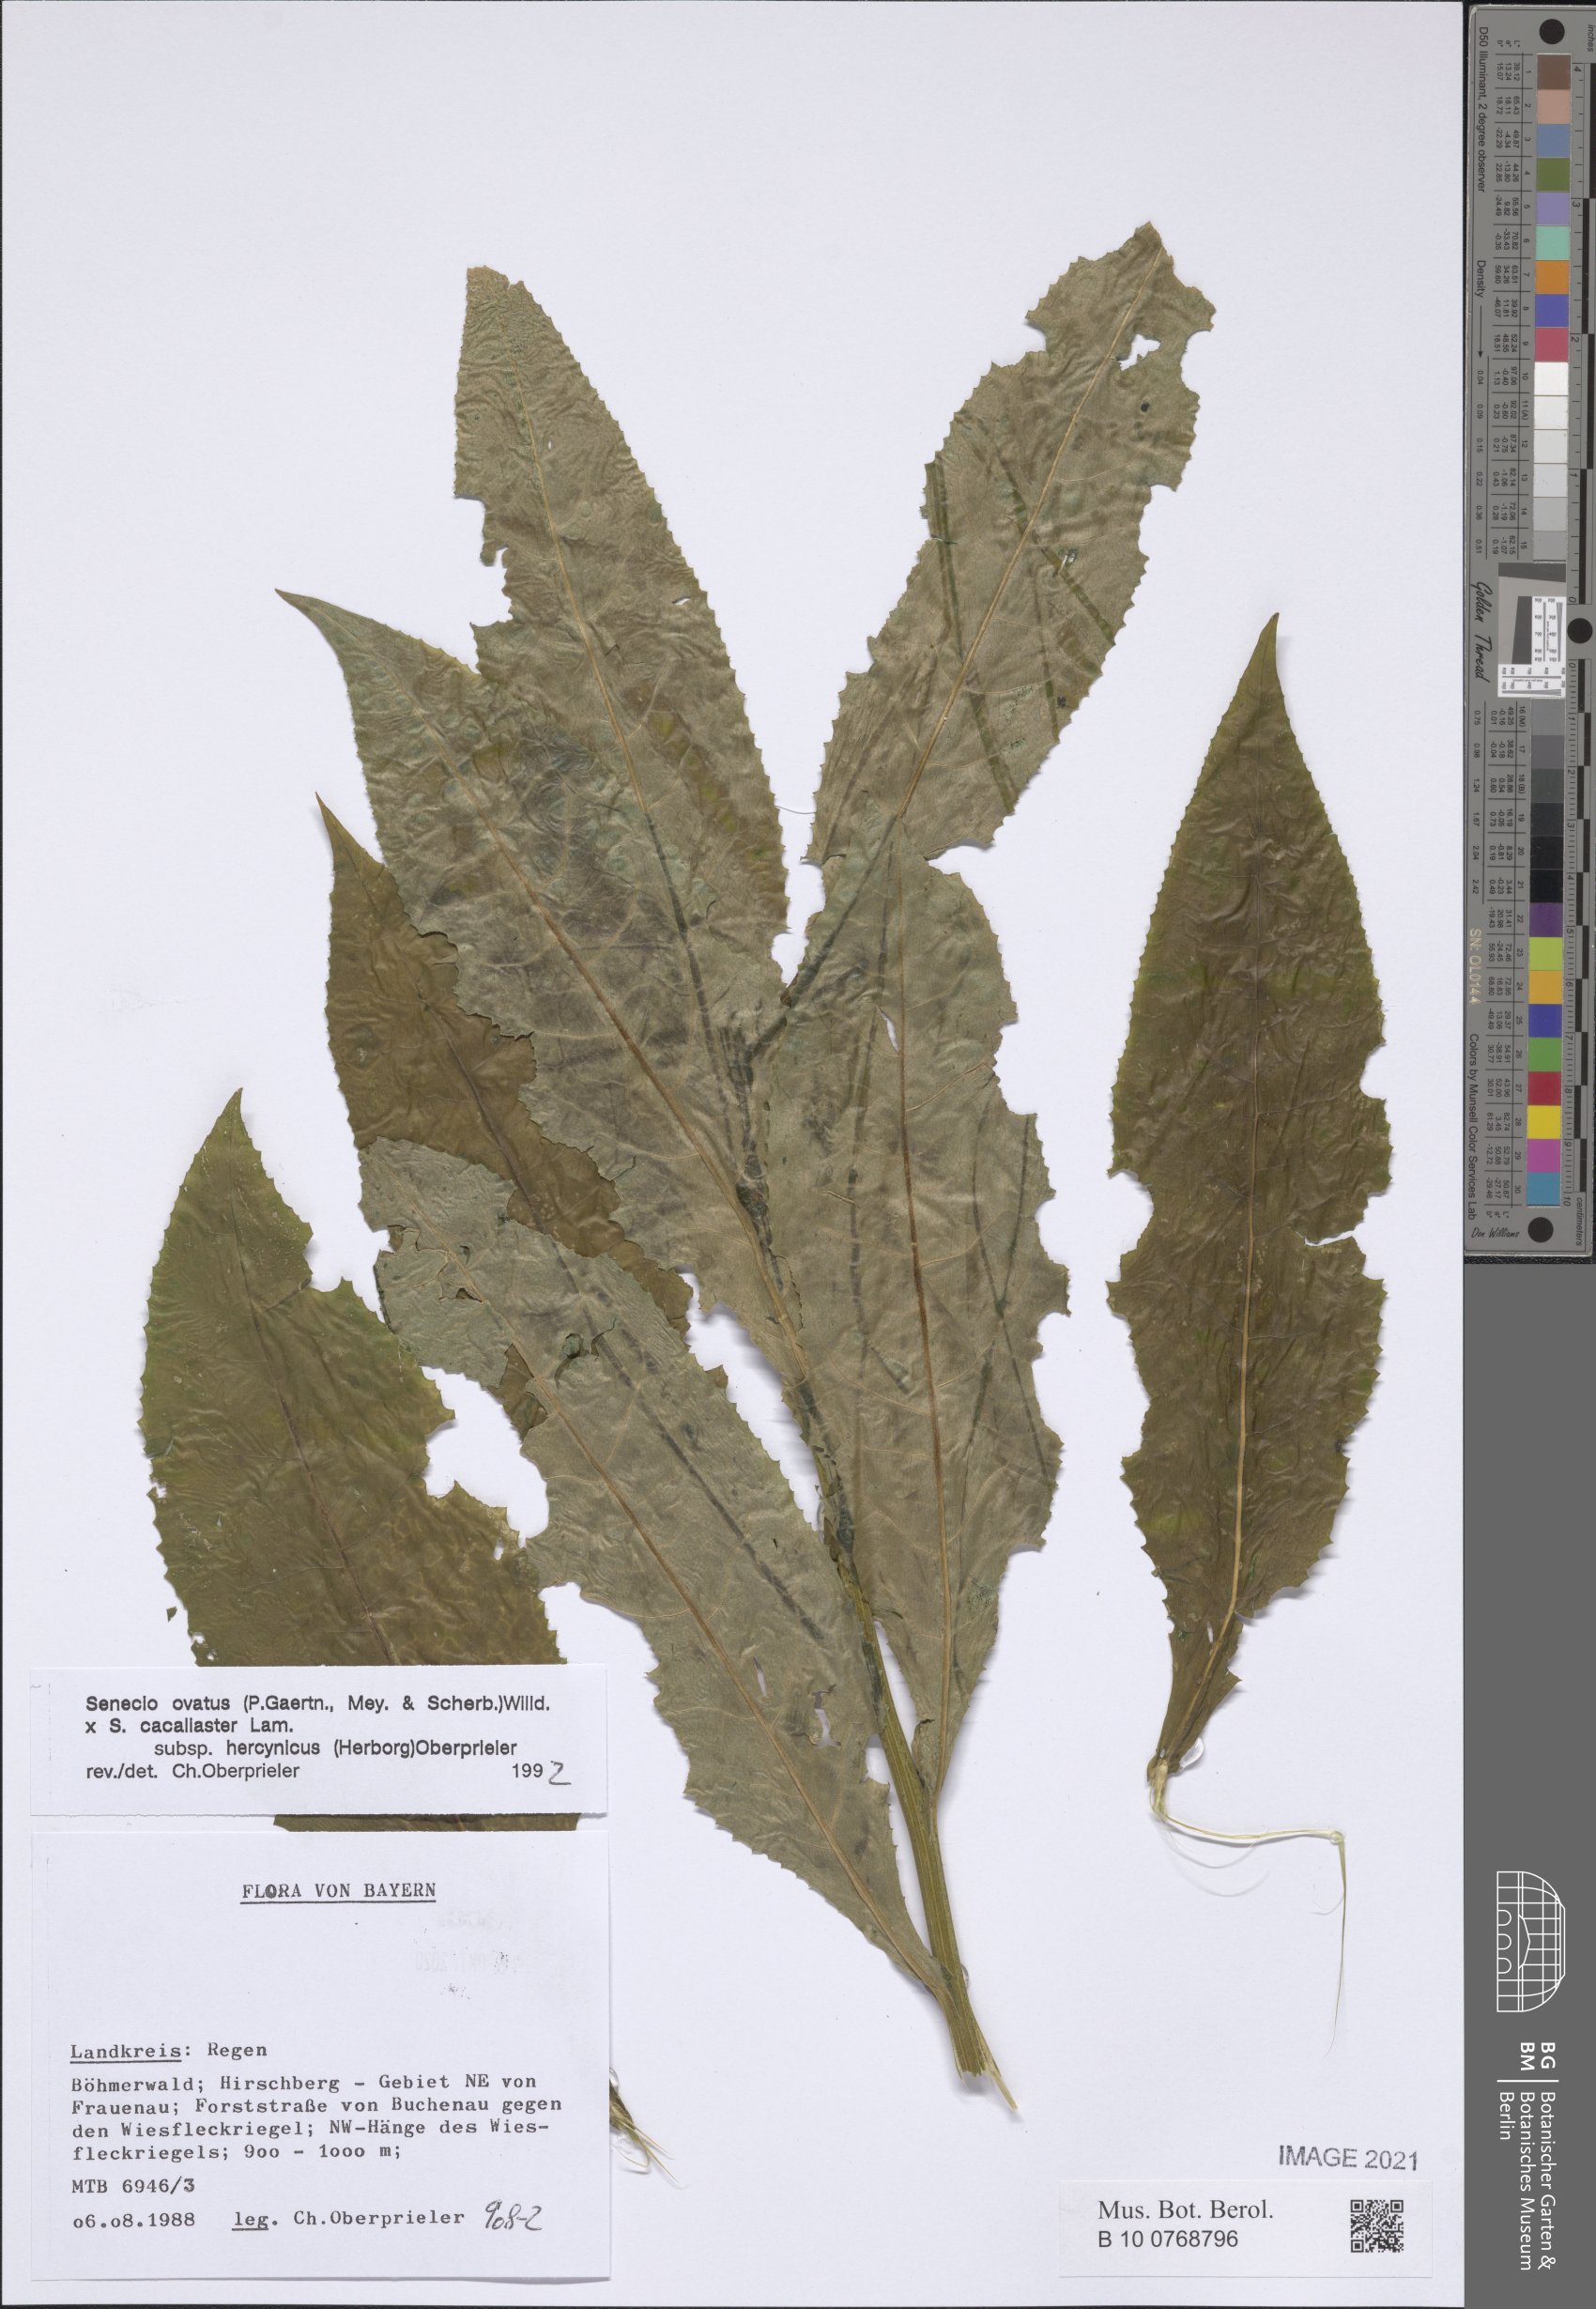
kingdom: Plantae
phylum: Tracheophyta
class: Magnoliopsida
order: Asterales
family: Asteraceae
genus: Senecio
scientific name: Senecio ovatus
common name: Wood ragwort
